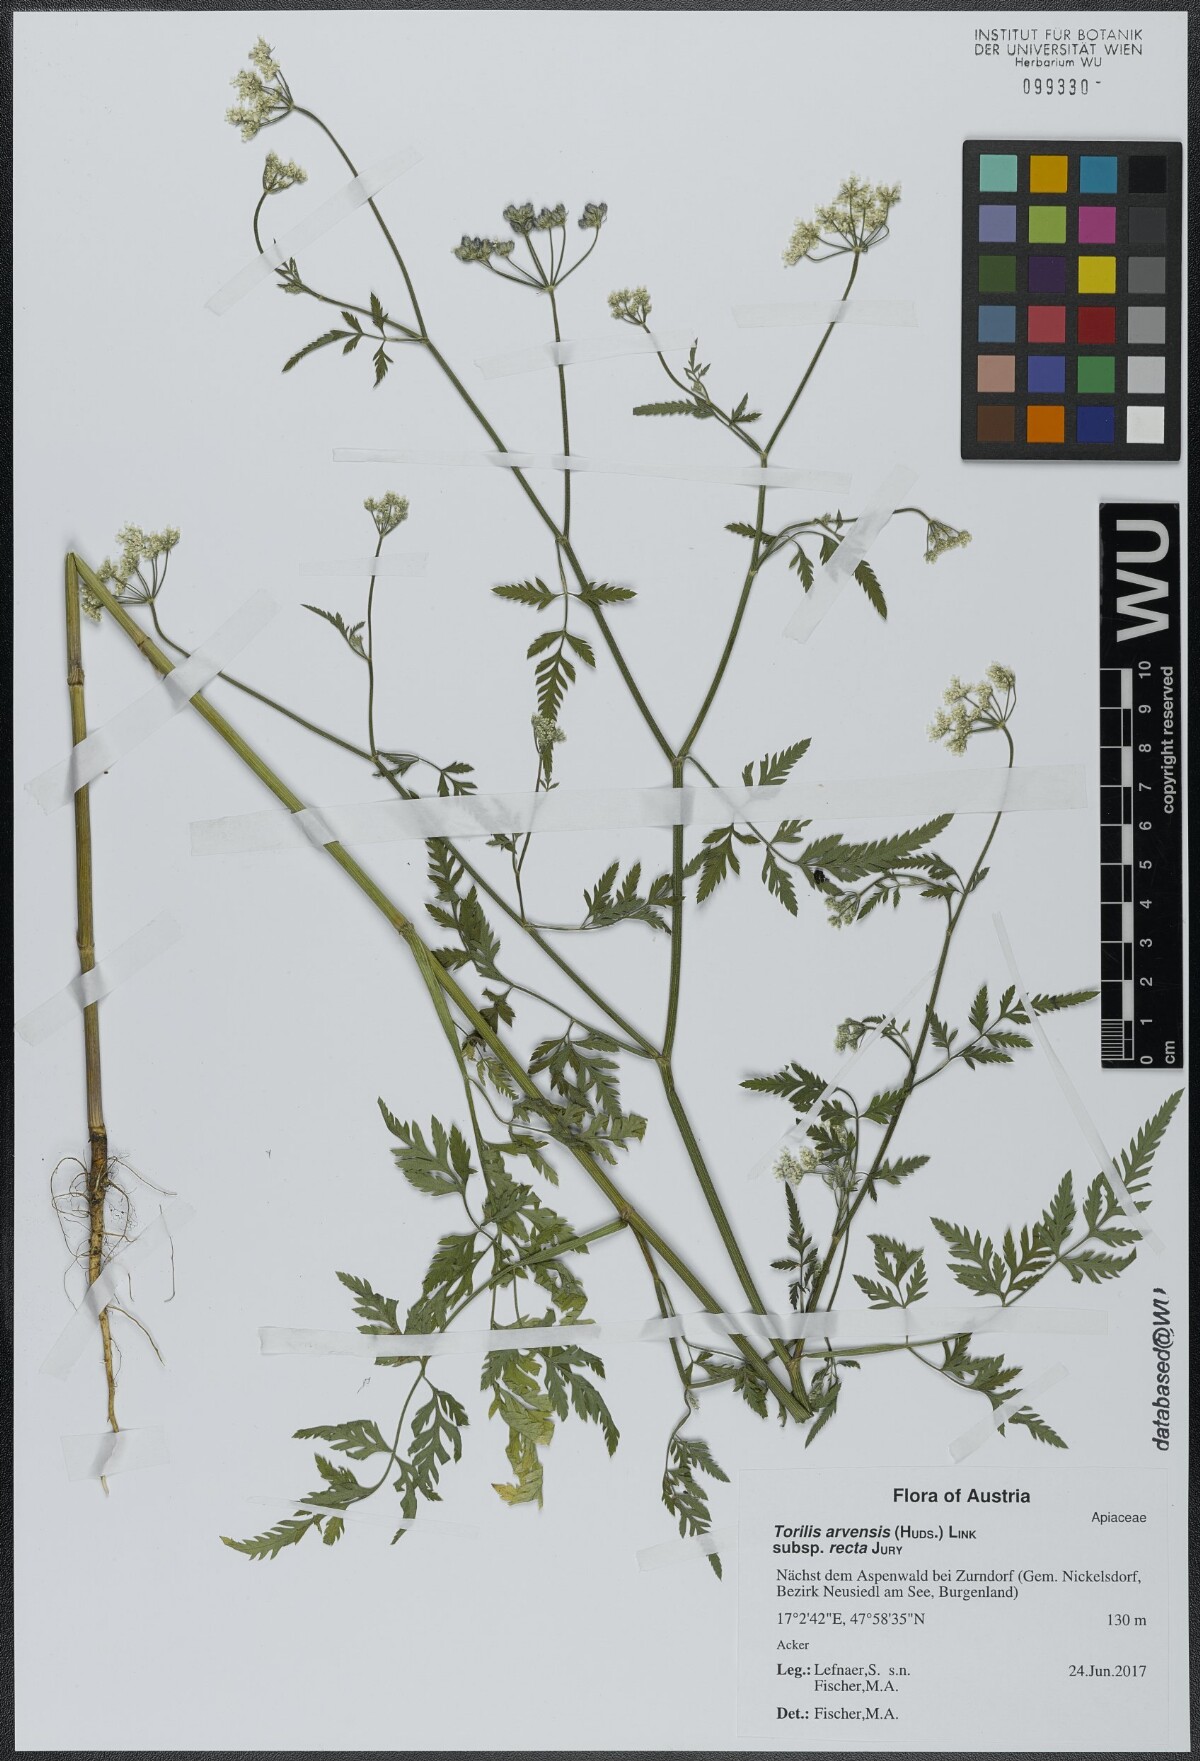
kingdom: Plantae
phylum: Tracheophyta
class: Magnoliopsida
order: Apiales
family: Apiaceae
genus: Torilis
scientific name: Torilis arvensis
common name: Spreading hedge-parsley
